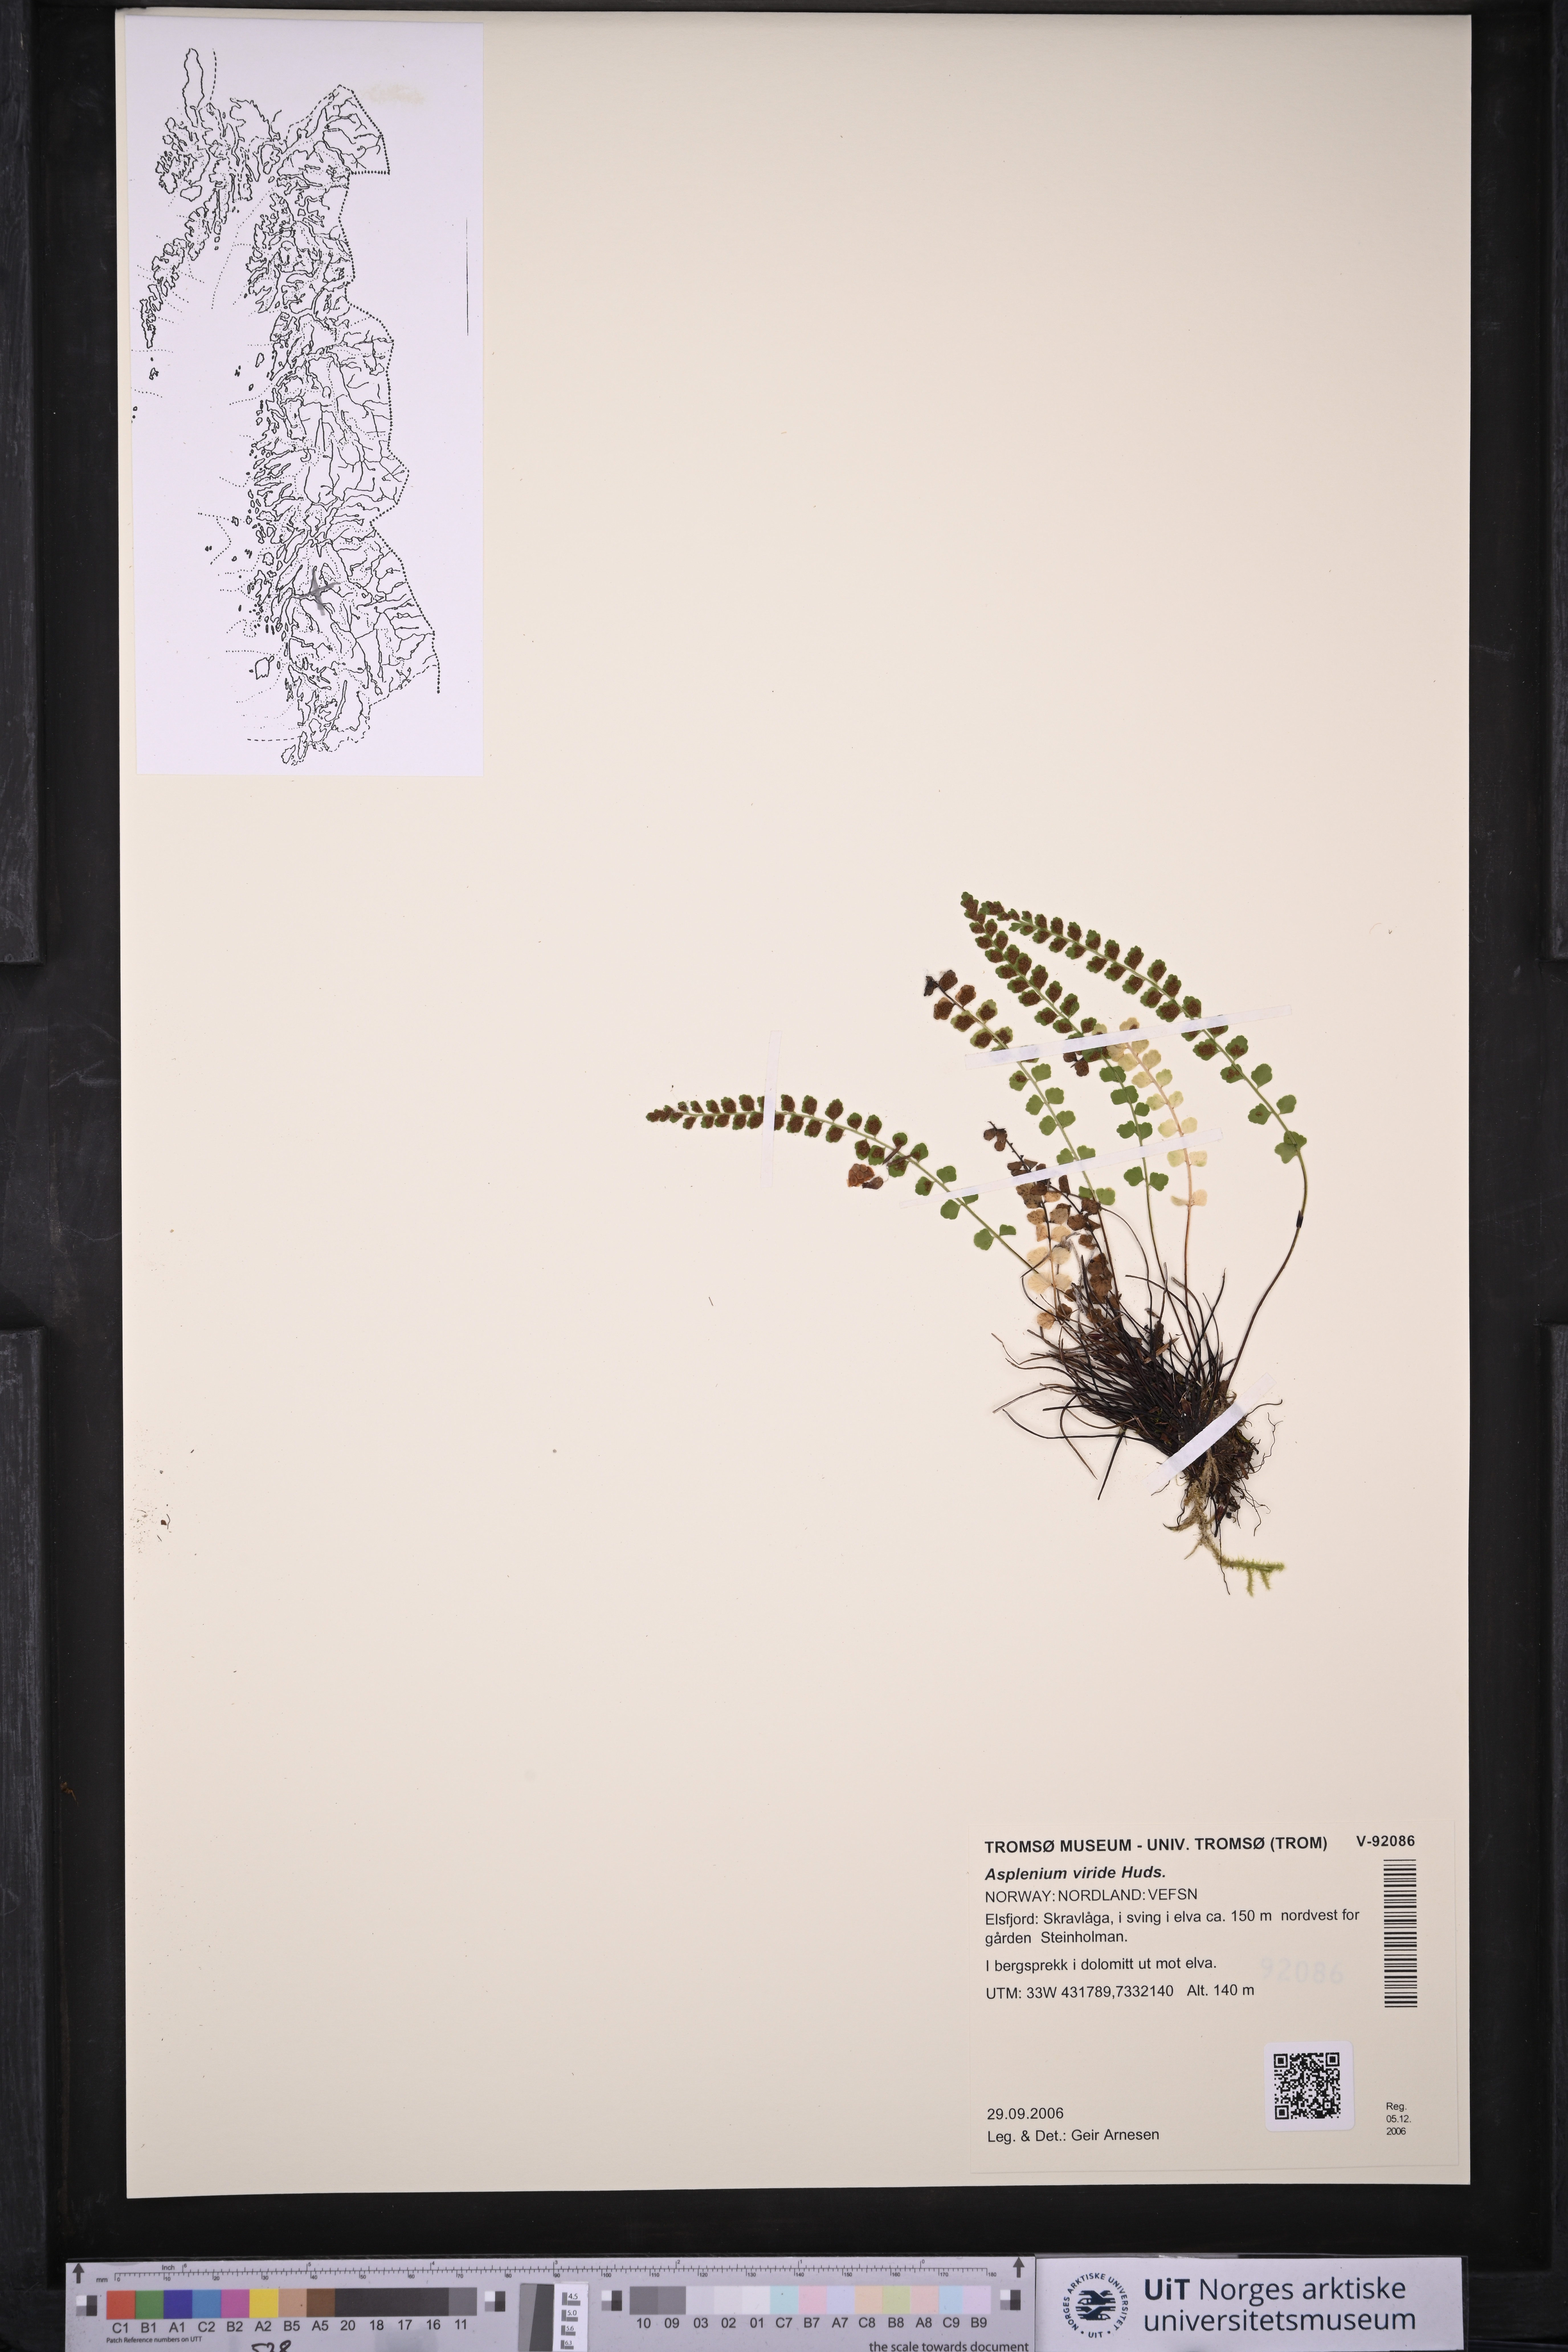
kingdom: Plantae
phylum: Tracheophyta
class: Polypodiopsida
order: Polypodiales
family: Aspleniaceae
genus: Asplenium
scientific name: Asplenium viride
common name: Green spleenwort
